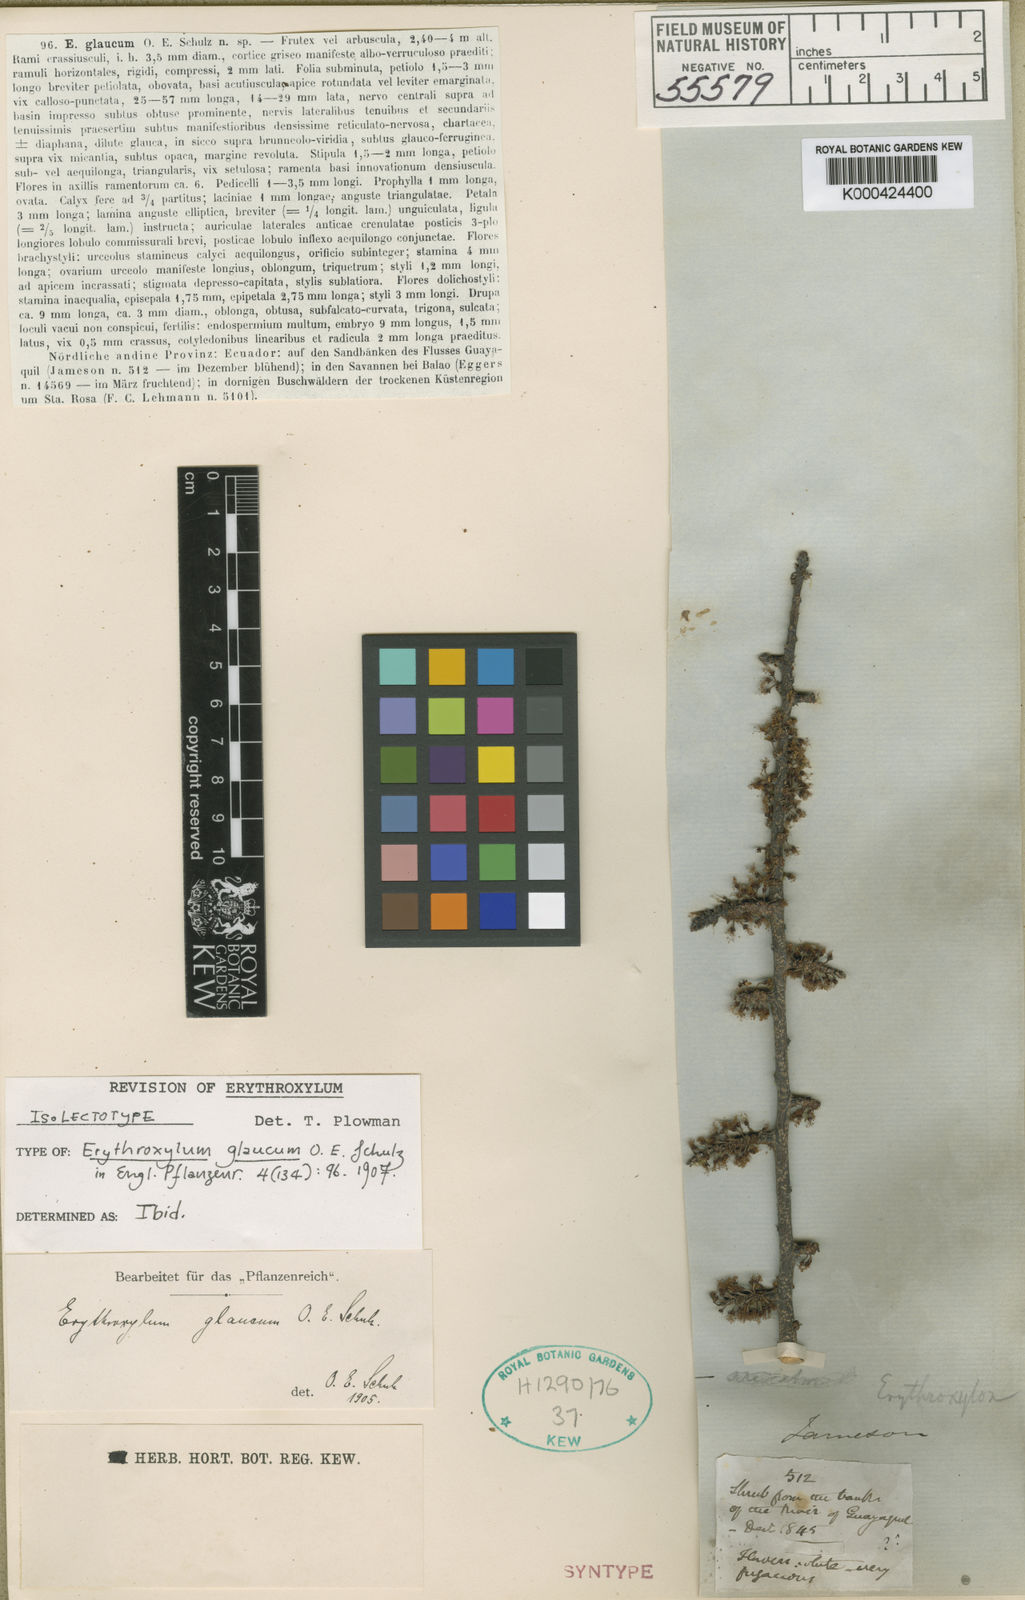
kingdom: Plantae
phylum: Tracheophyta
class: Magnoliopsida
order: Malpighiales
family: Erythroxylaceae
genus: Erythroxylum
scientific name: Erythroxylum glaucum
